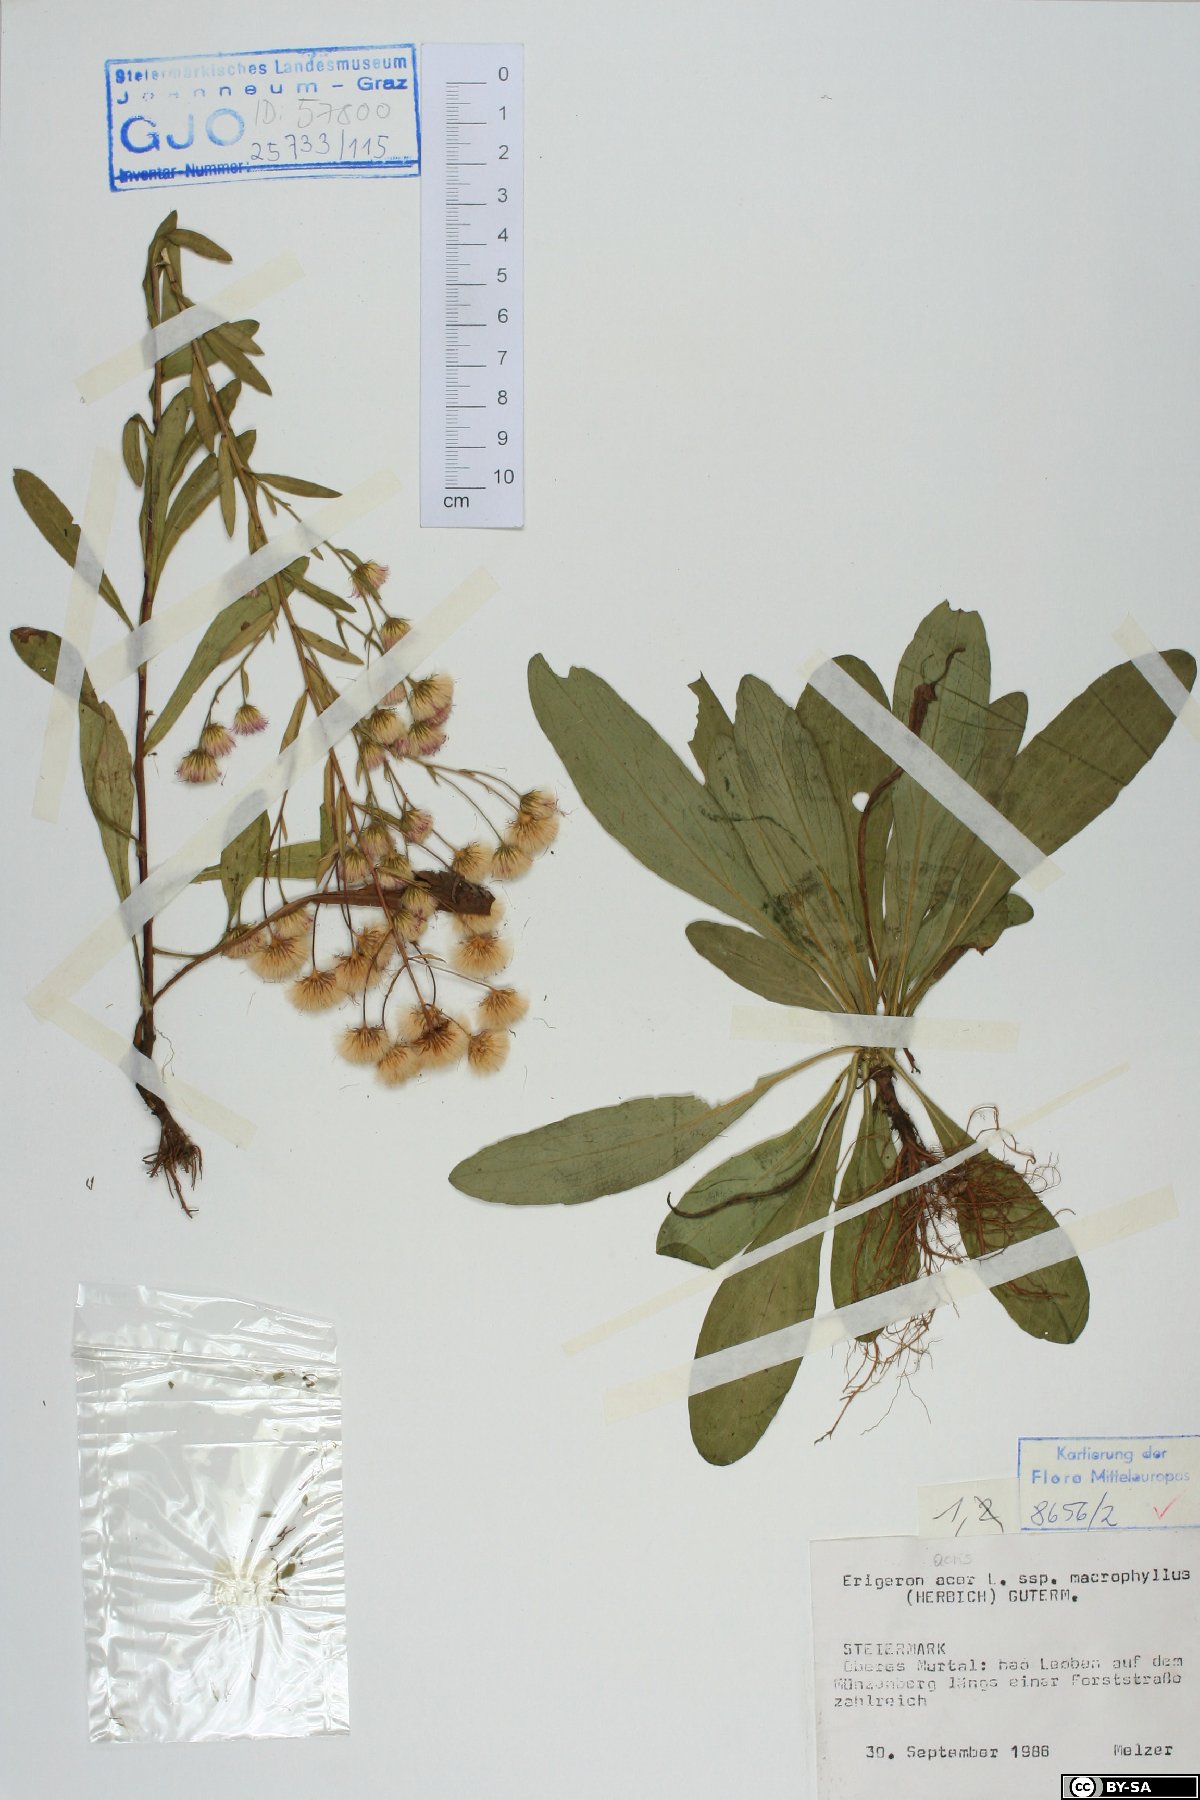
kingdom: Plantae
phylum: Tracheophyta
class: Magnoliopsida
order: Asterales
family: Asteraceae
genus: Erigeron
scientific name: Erigeron macrophyllus
